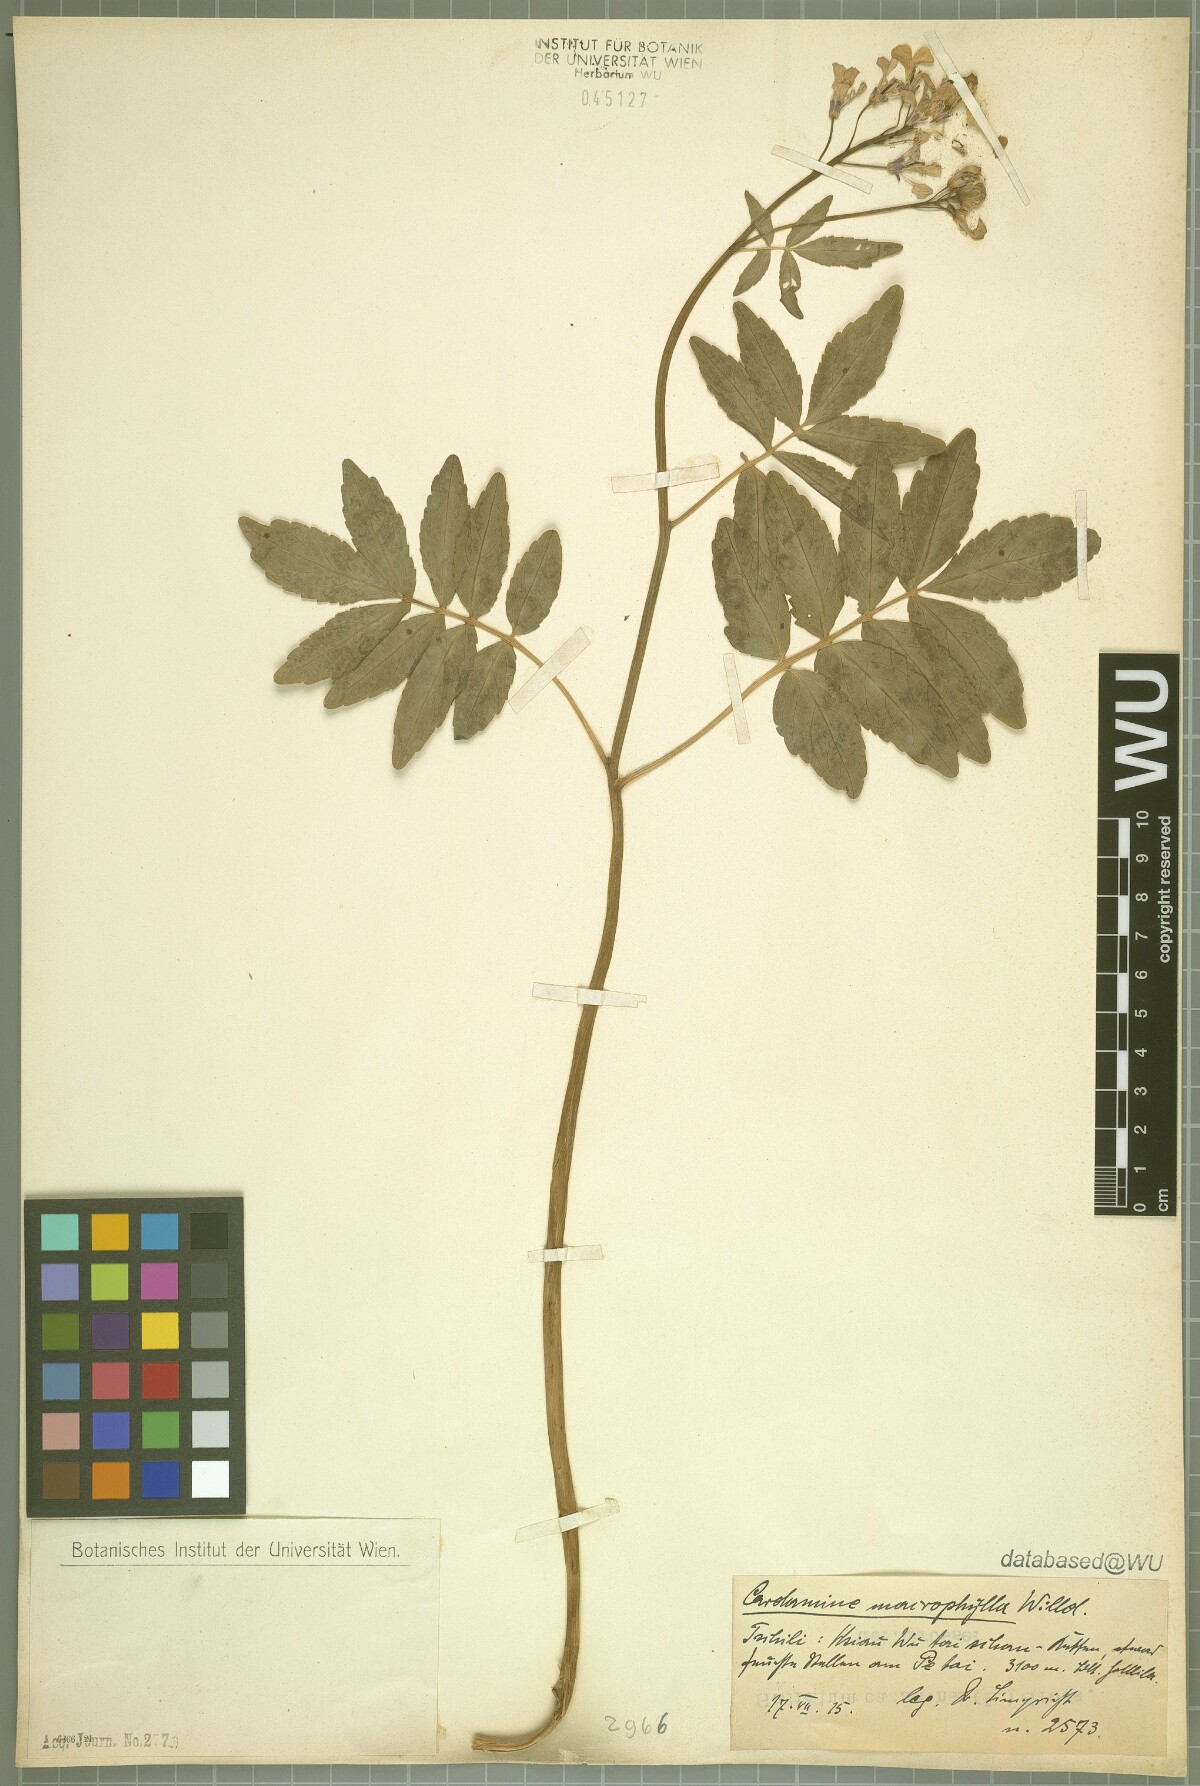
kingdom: Plantae
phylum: Tracheophyta
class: Magnoliopsida
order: Brassicales
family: Brassicaceae
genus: Cardamine
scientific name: Cardamine macrophylla
